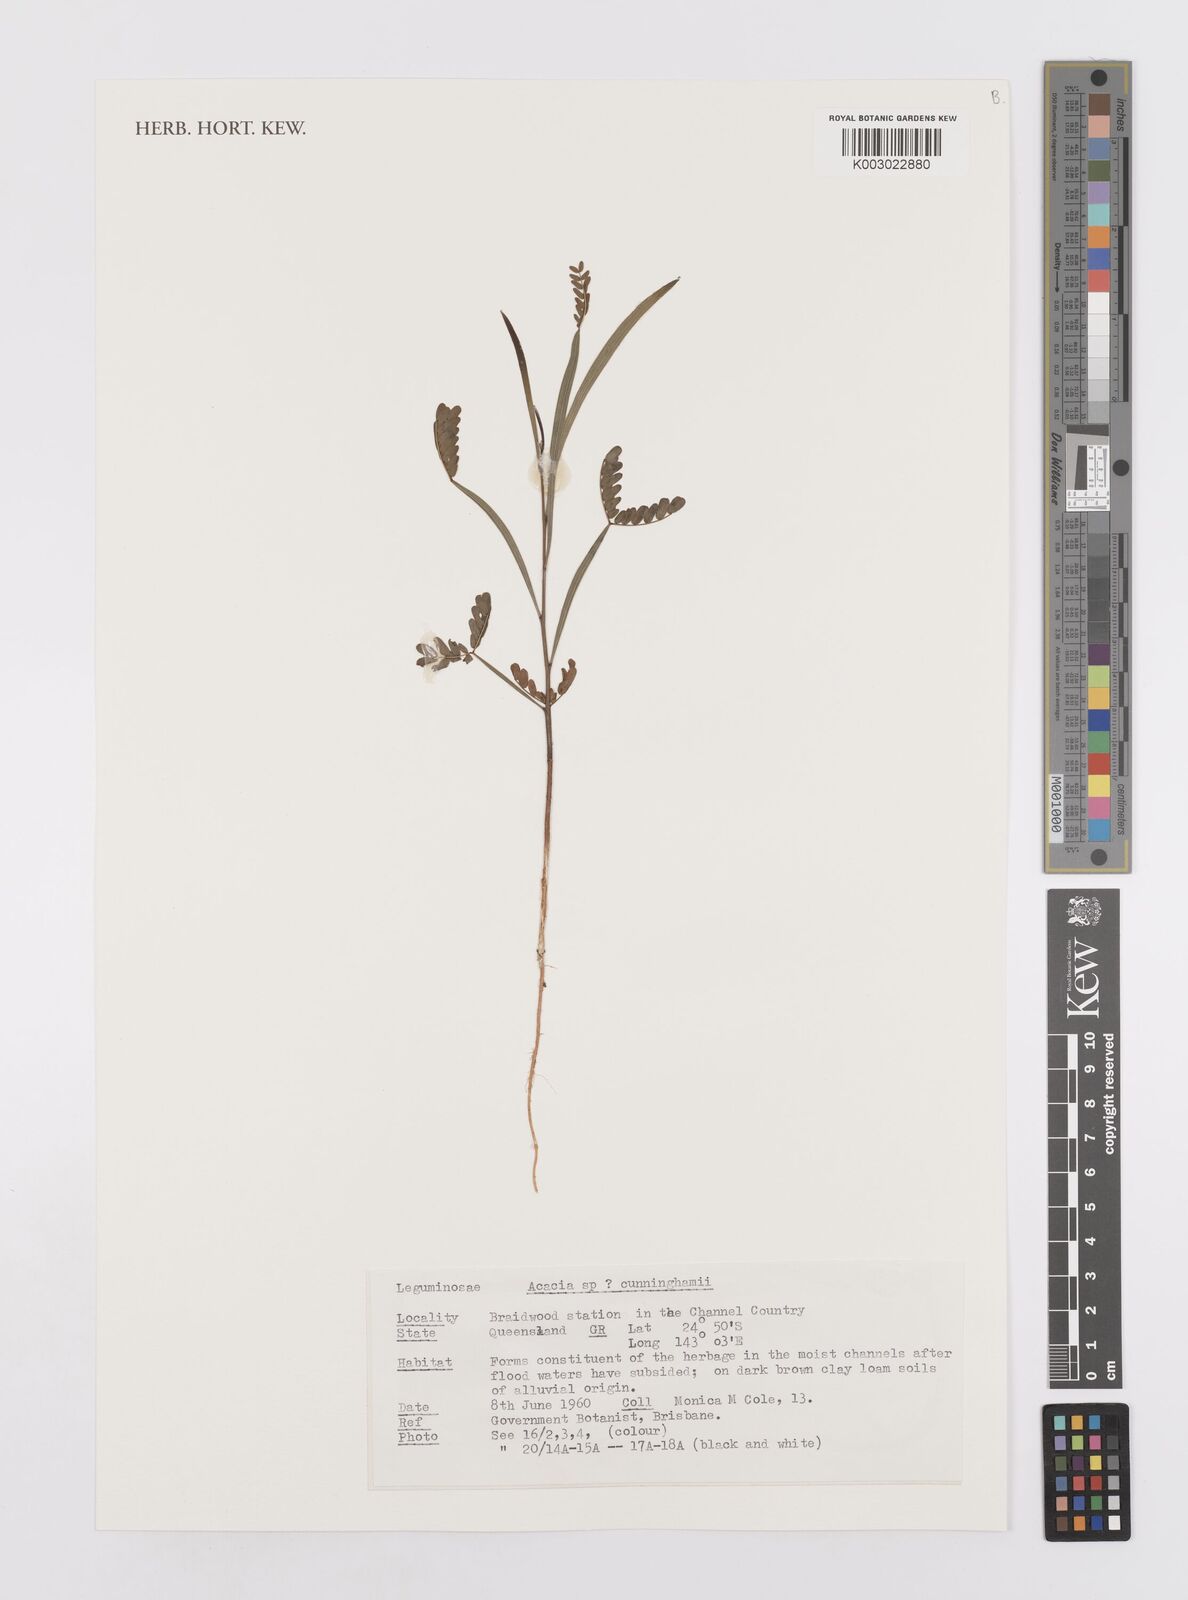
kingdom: Plantae
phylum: Tracheophyta
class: Magnoliopsida
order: Fabales
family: Fabaceae
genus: Acacia
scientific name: Acacia longispicata
